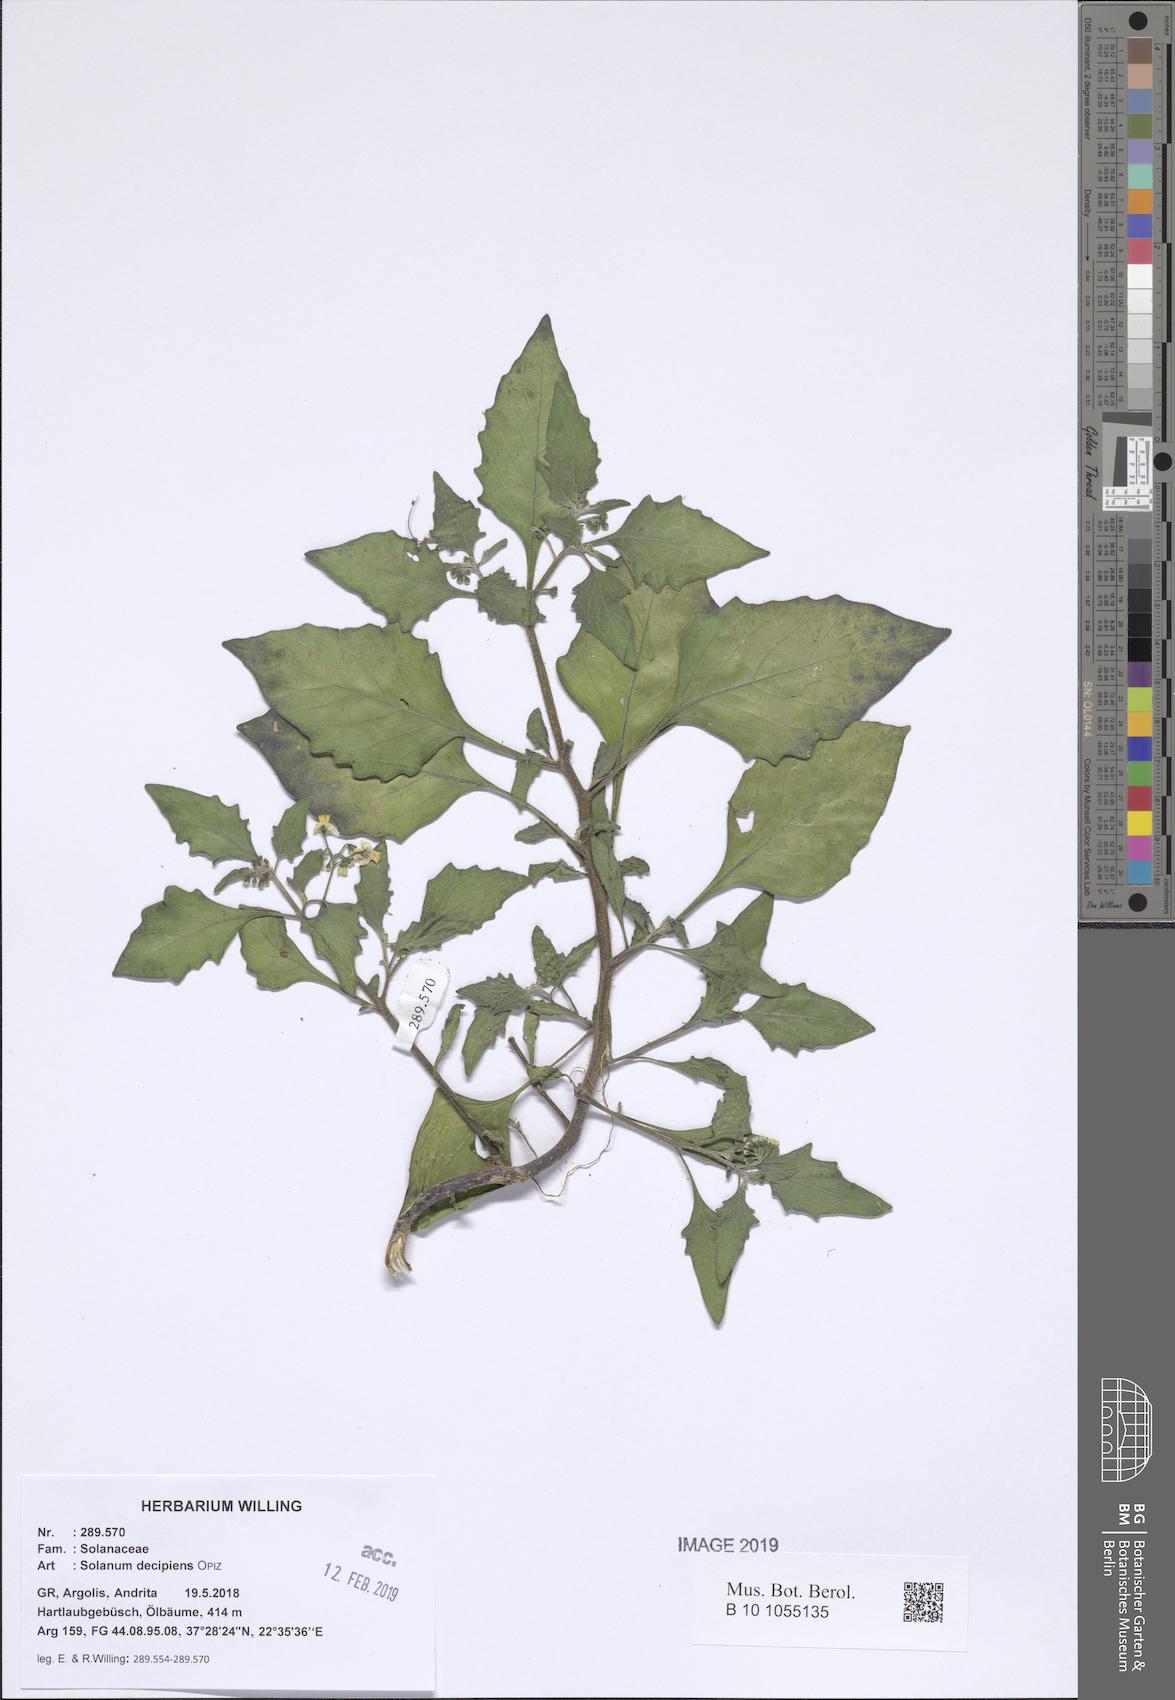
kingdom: Plantae
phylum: Tracheophyta
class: Magnoliopsida
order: Solanales
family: Solanaceae
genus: Solanum
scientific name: Solanum decipiens
